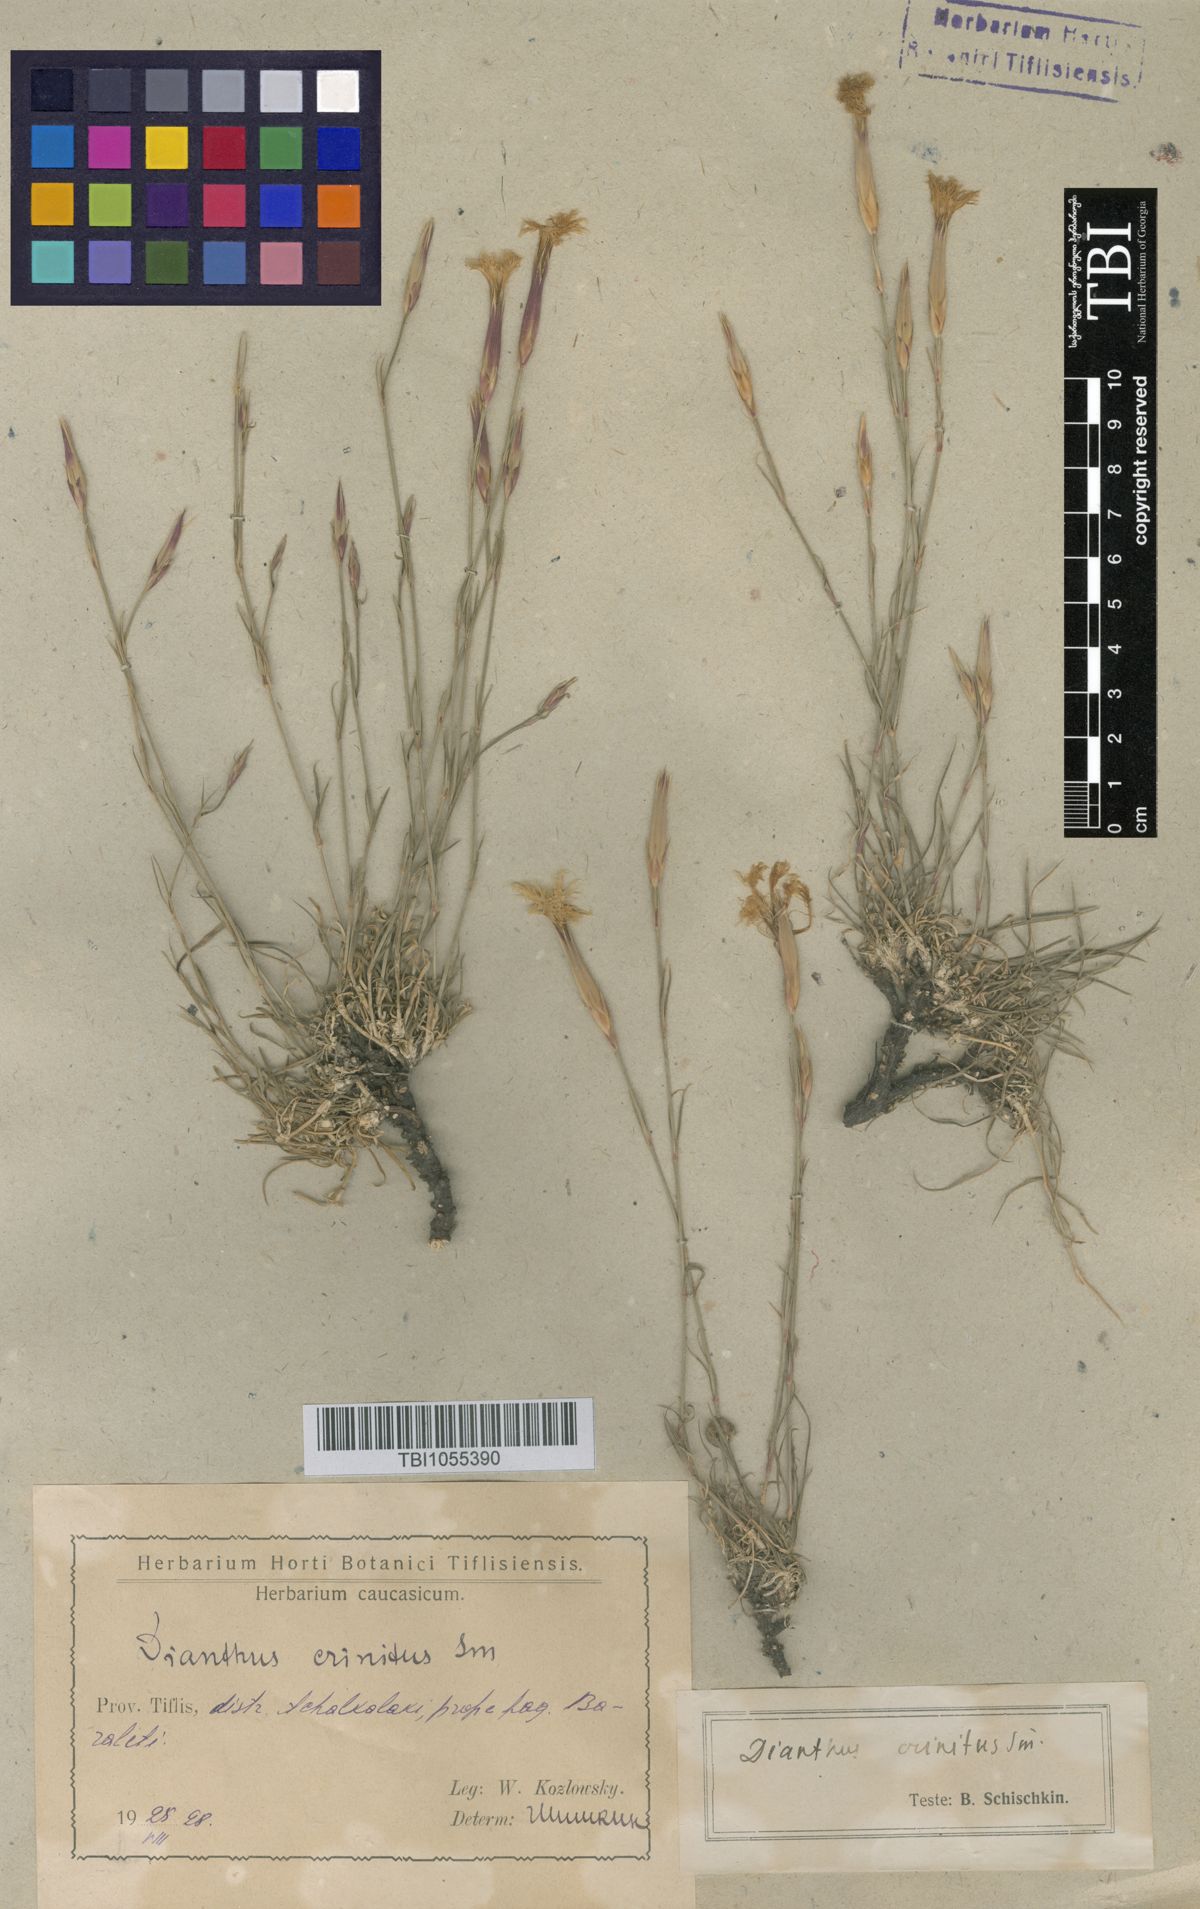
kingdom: Plantae
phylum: Tracheophyta
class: Magnoliopsida
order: Caryophyllales
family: Caryophyllaceae
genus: Dianthus
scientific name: Dianthus crinitus
